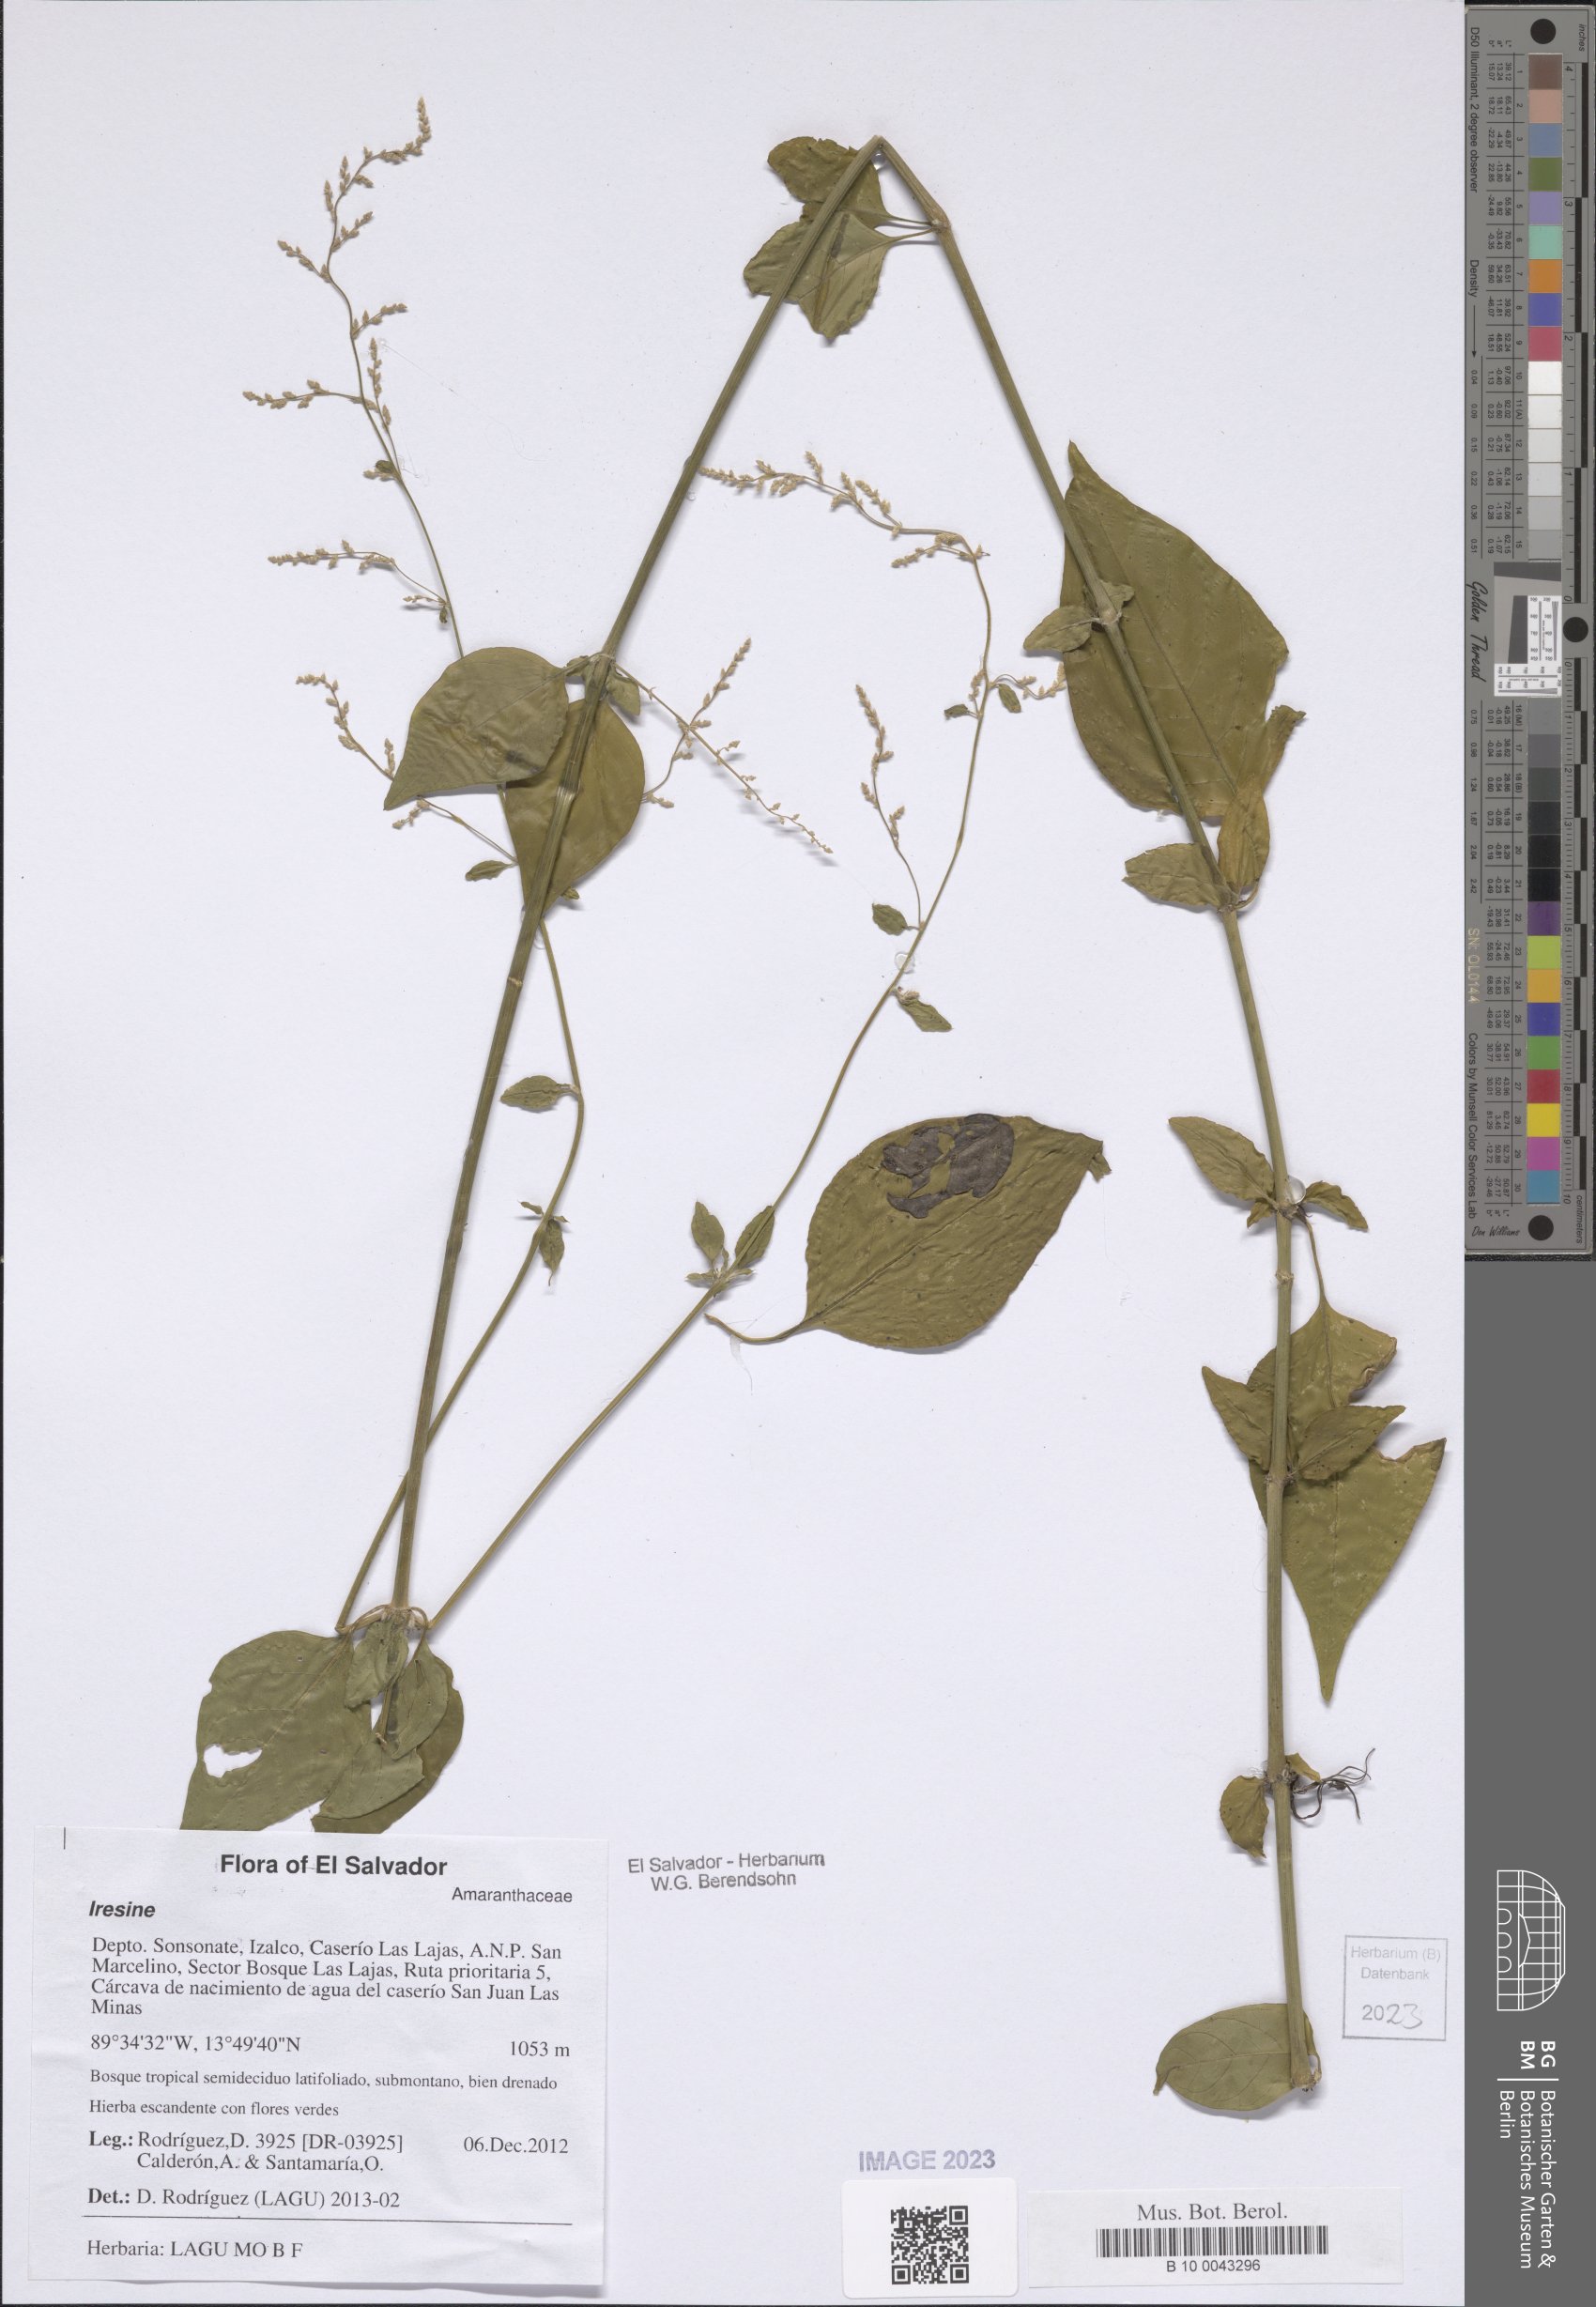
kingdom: Plantae
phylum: Tracheophyta
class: Magnoliopsida
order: Caryophyllales
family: Amaranthaceae
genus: Iresine
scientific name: Iresine
